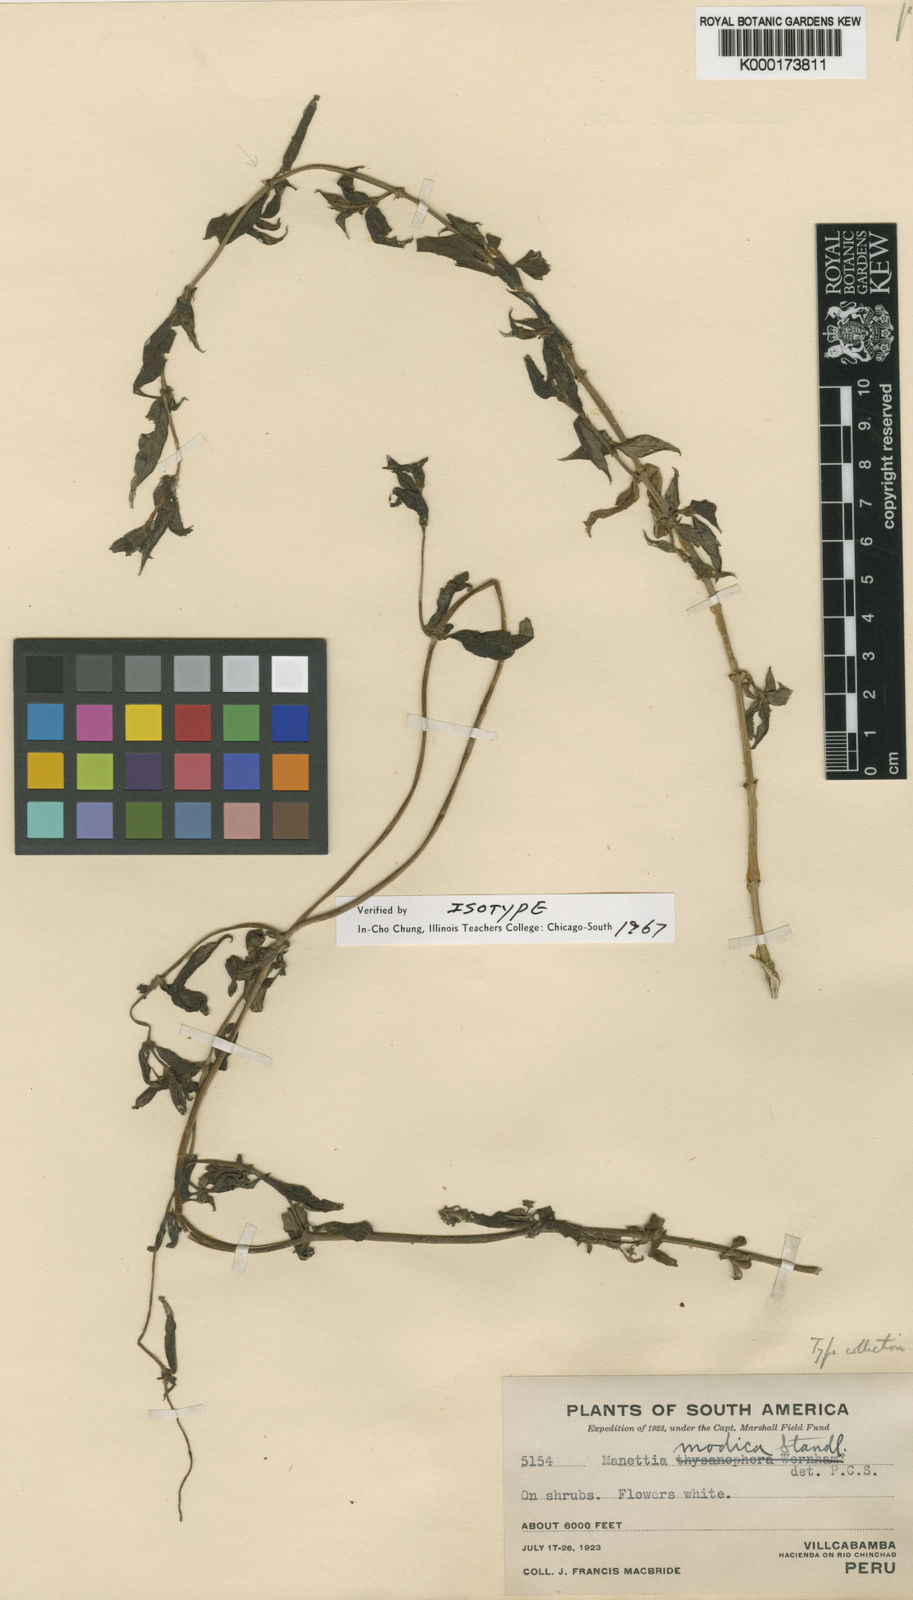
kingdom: Plantae
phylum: Tracheophyta
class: Magnoliopsida
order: Gentianales
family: Rubiaceae
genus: Manettia
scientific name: Manettia modica
